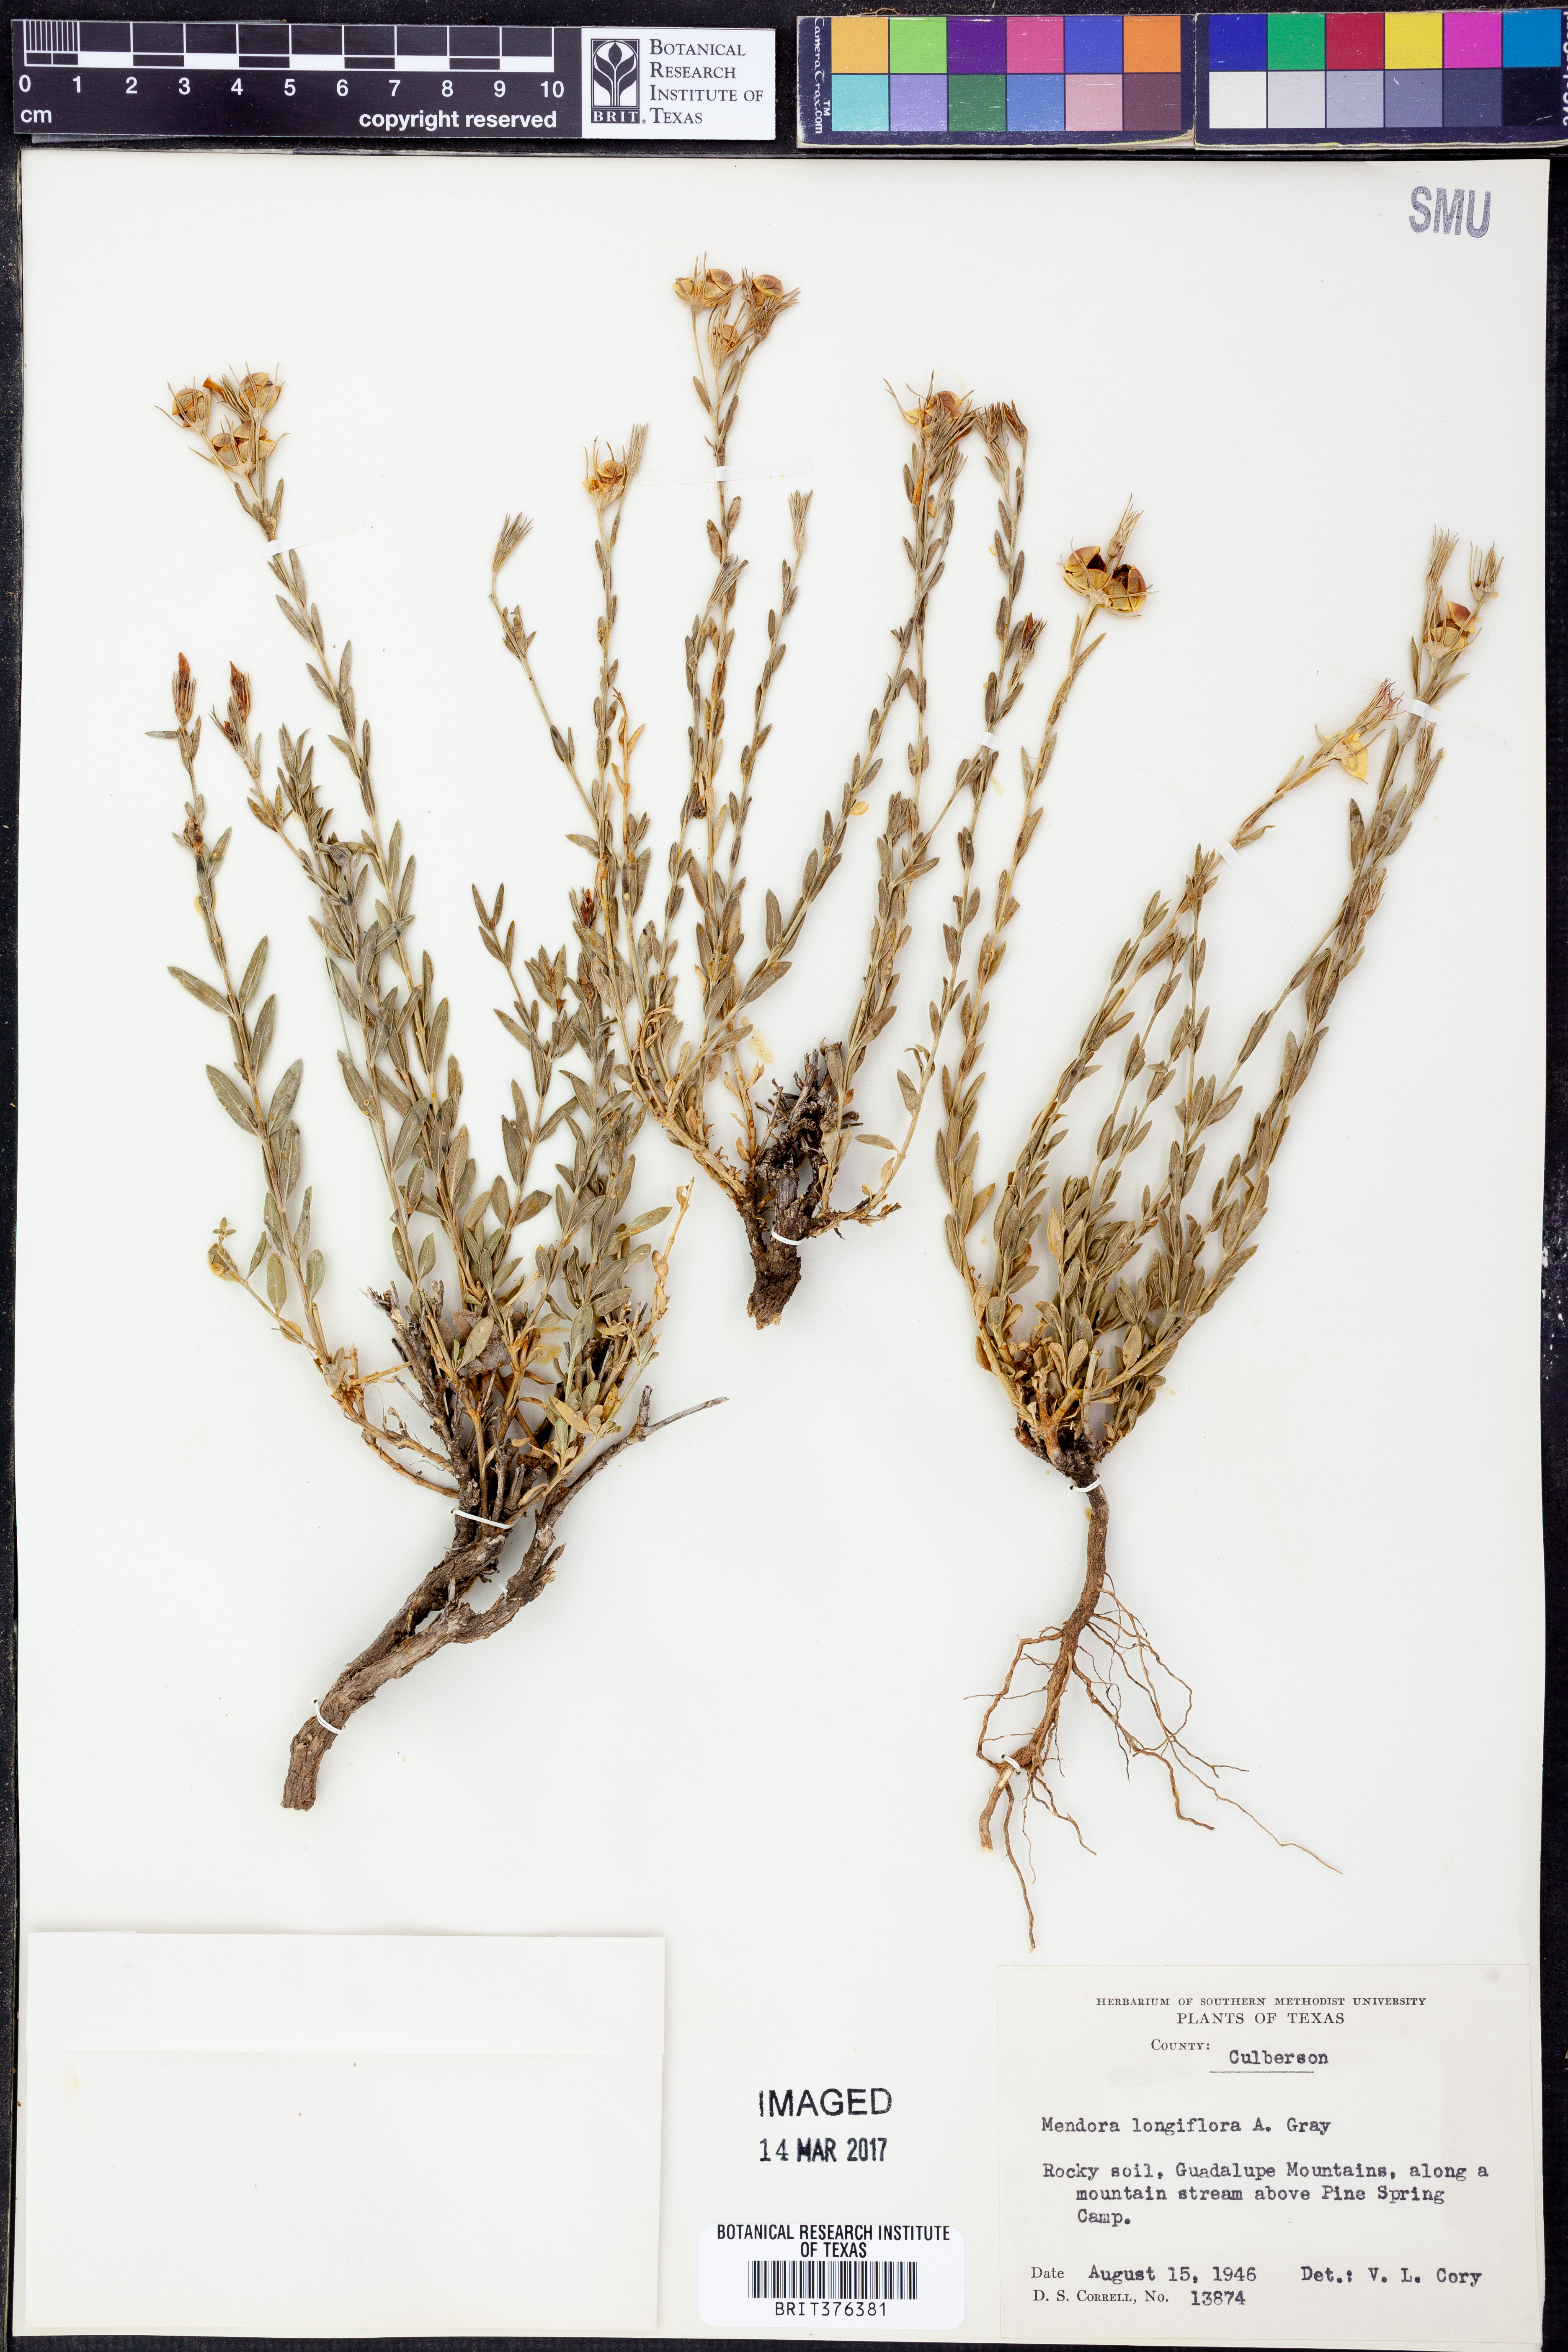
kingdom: Plantae
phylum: Tracheophyta
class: Magnoliopsida
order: Lamiales
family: Oleaceae
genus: Menodora
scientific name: Menodora longiflora
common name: Showy menodora
